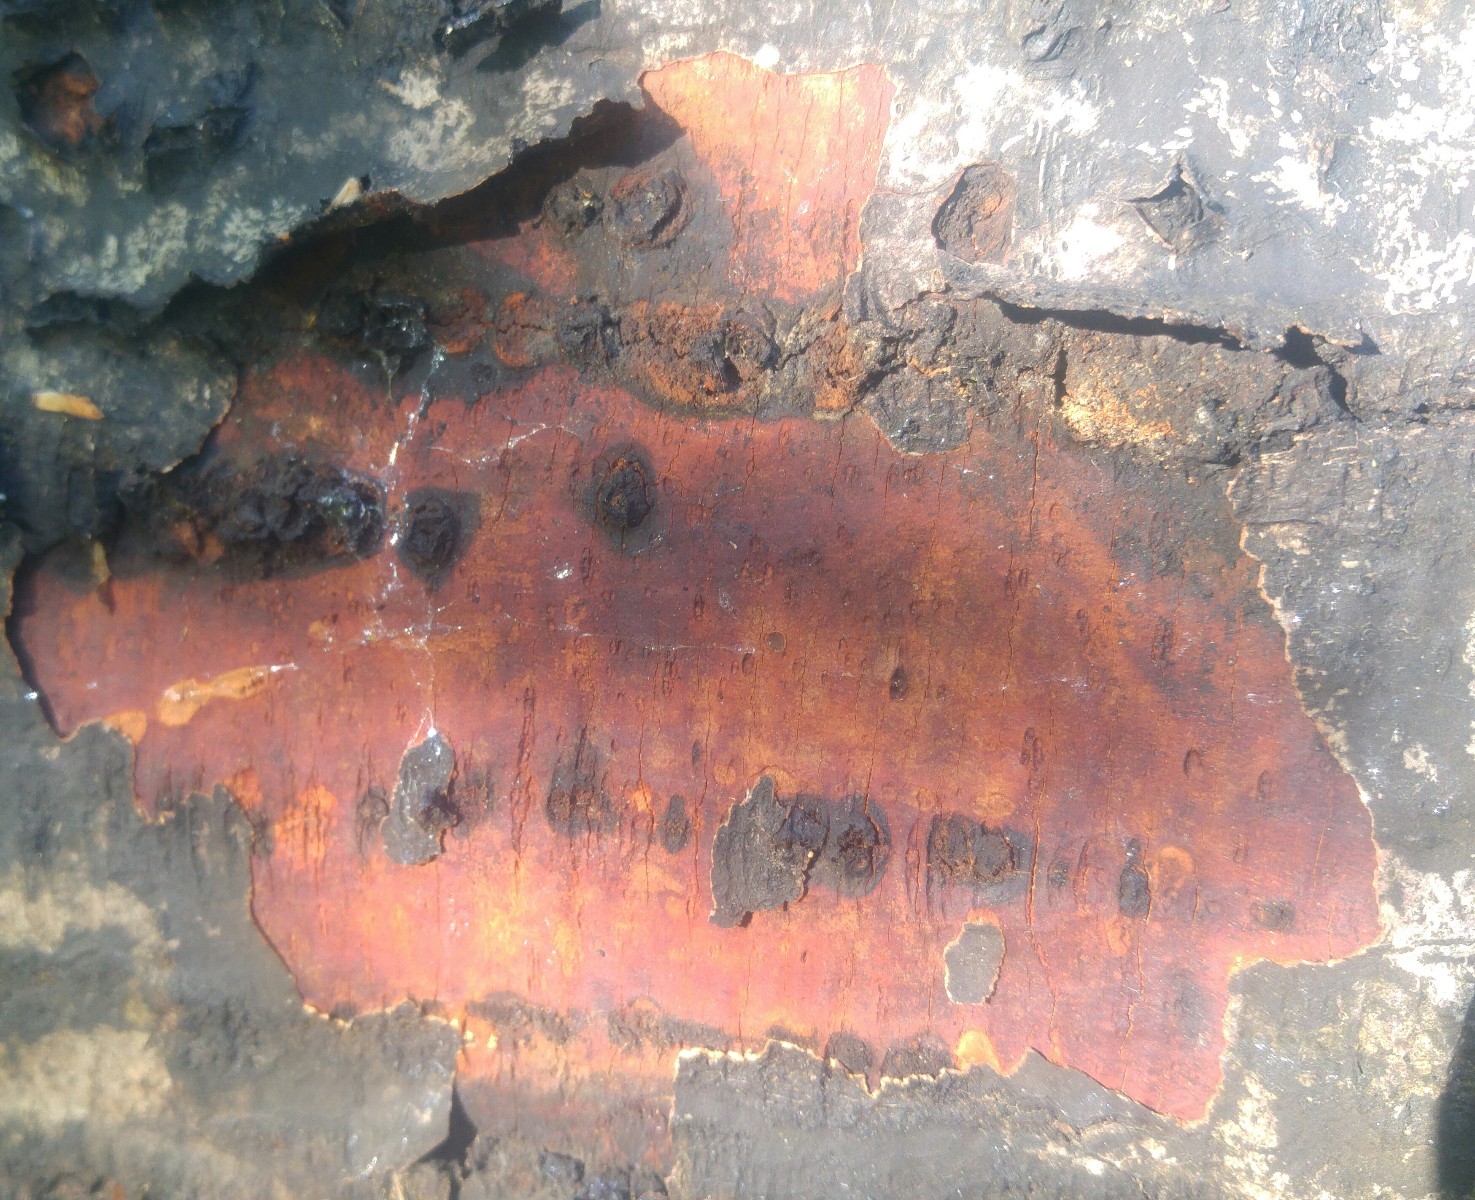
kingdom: Fungi
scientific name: Fungi
